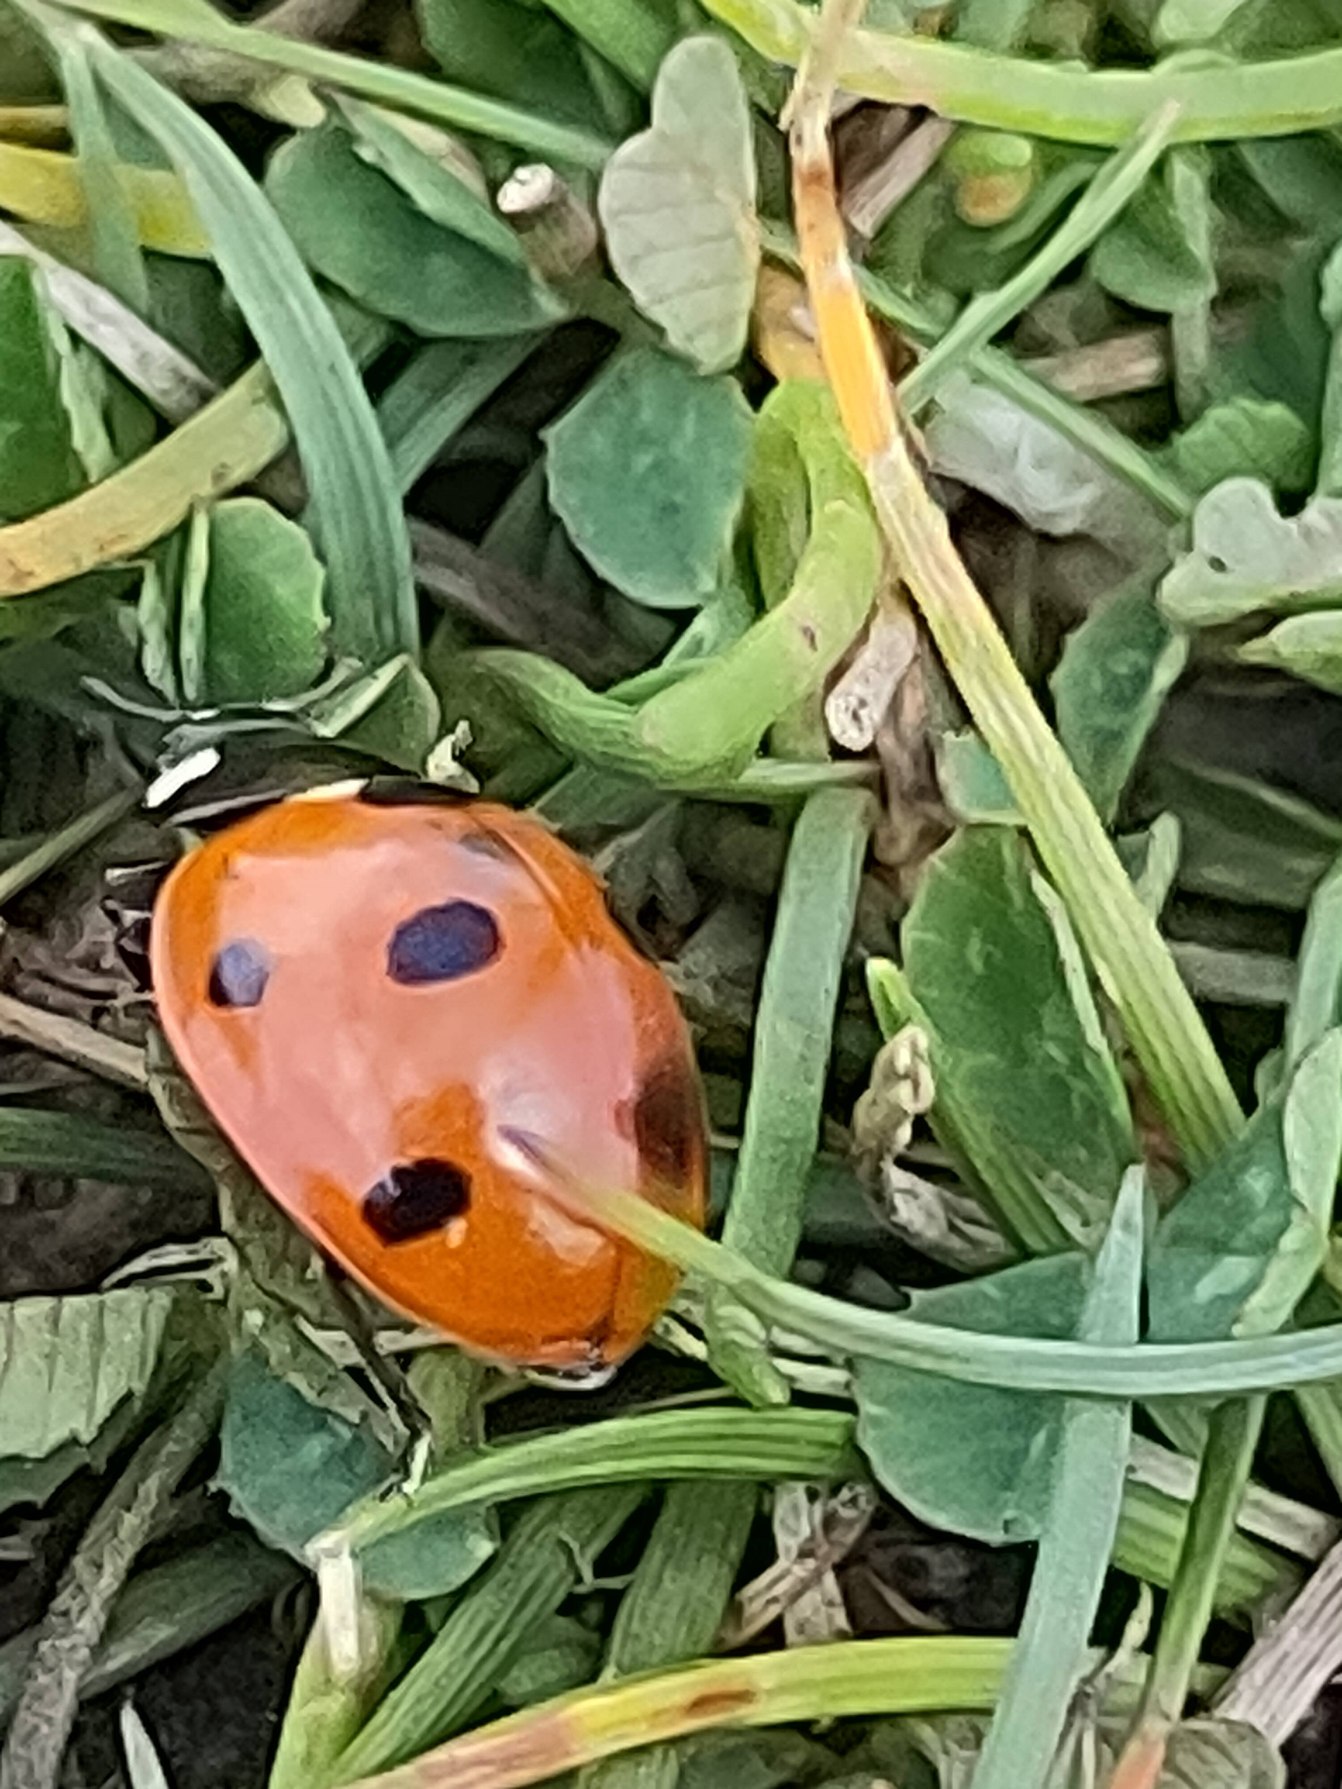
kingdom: Animalia
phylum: Arthropoda
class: Insecta
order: Coleoptera
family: Coccinellidae
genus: Coccinella
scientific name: Coccinella septempunctata
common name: Syvplettet mariehøne
